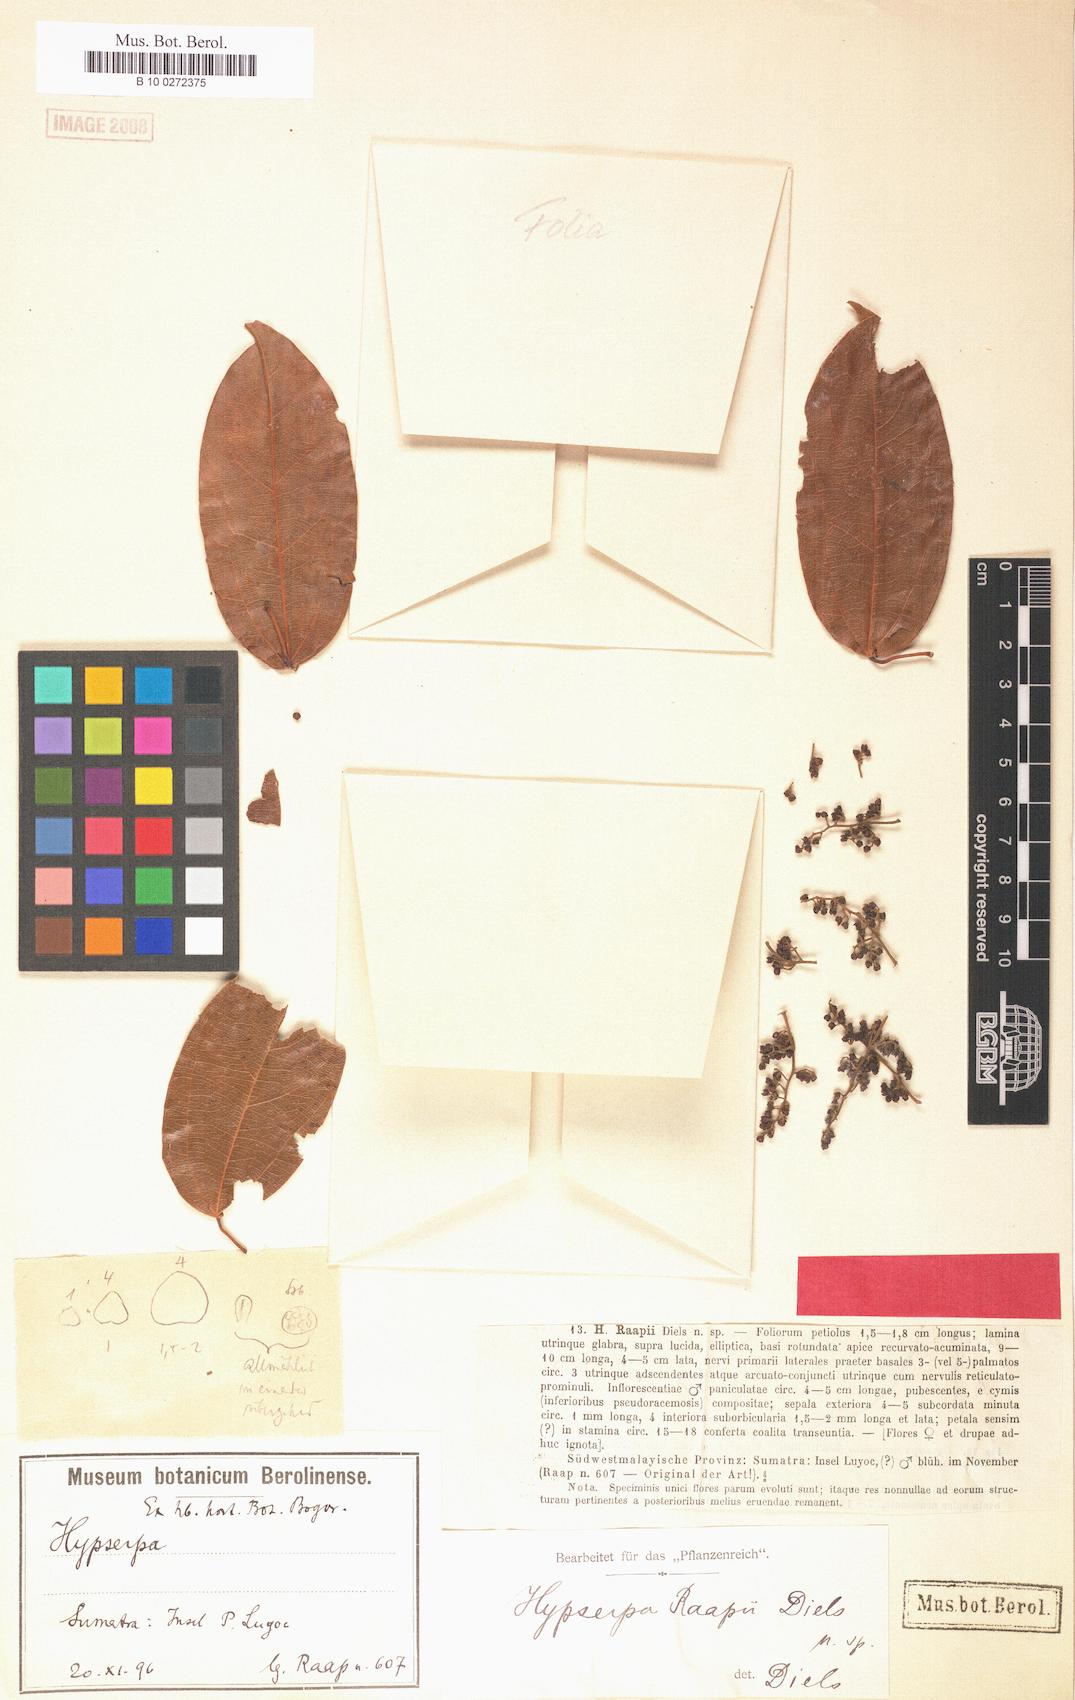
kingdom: Plantae
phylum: Tracheophyta
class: Magnoliopsida
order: Ranunculales
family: Menispermaceae
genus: Hypserpa
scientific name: Hypserpa polyandra
